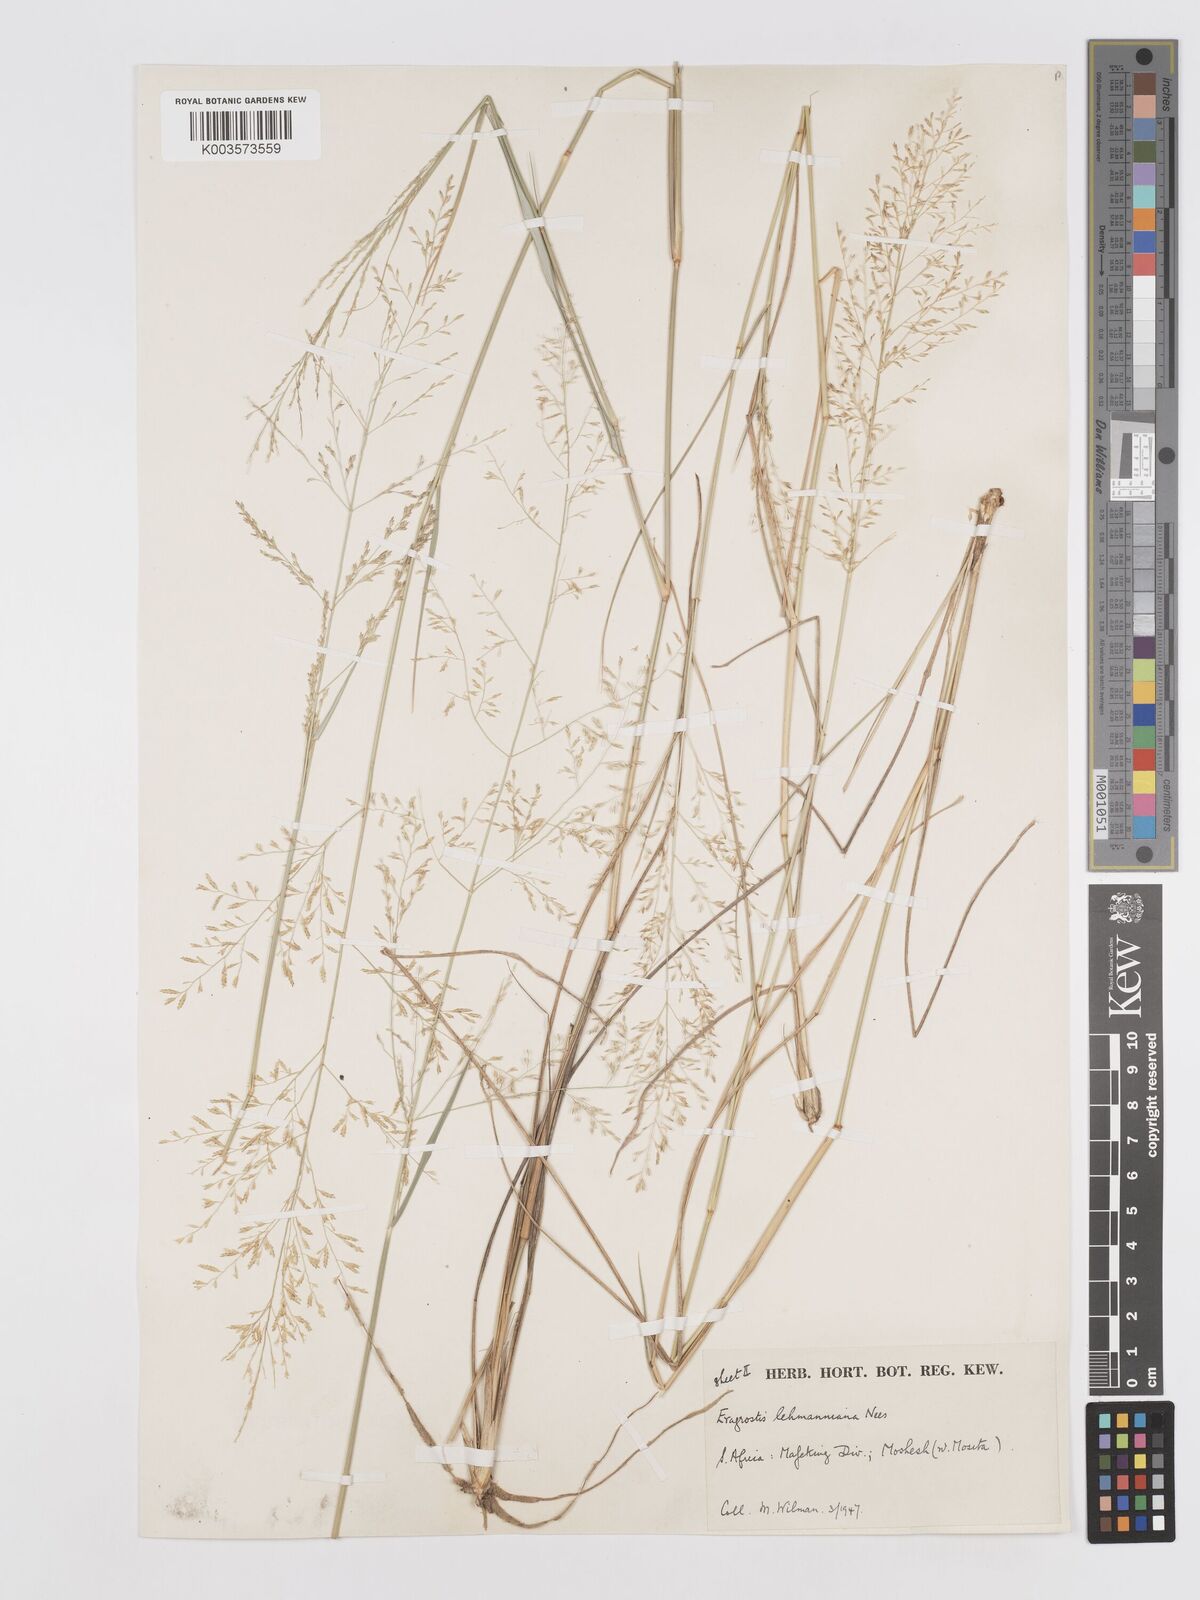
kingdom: Plantae
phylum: Tracheophyta
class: Liliopsida
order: Poales
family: Poaceae
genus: Eragrostis
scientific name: Eragrostis lehmanniana
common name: Lehmann lovegrass
